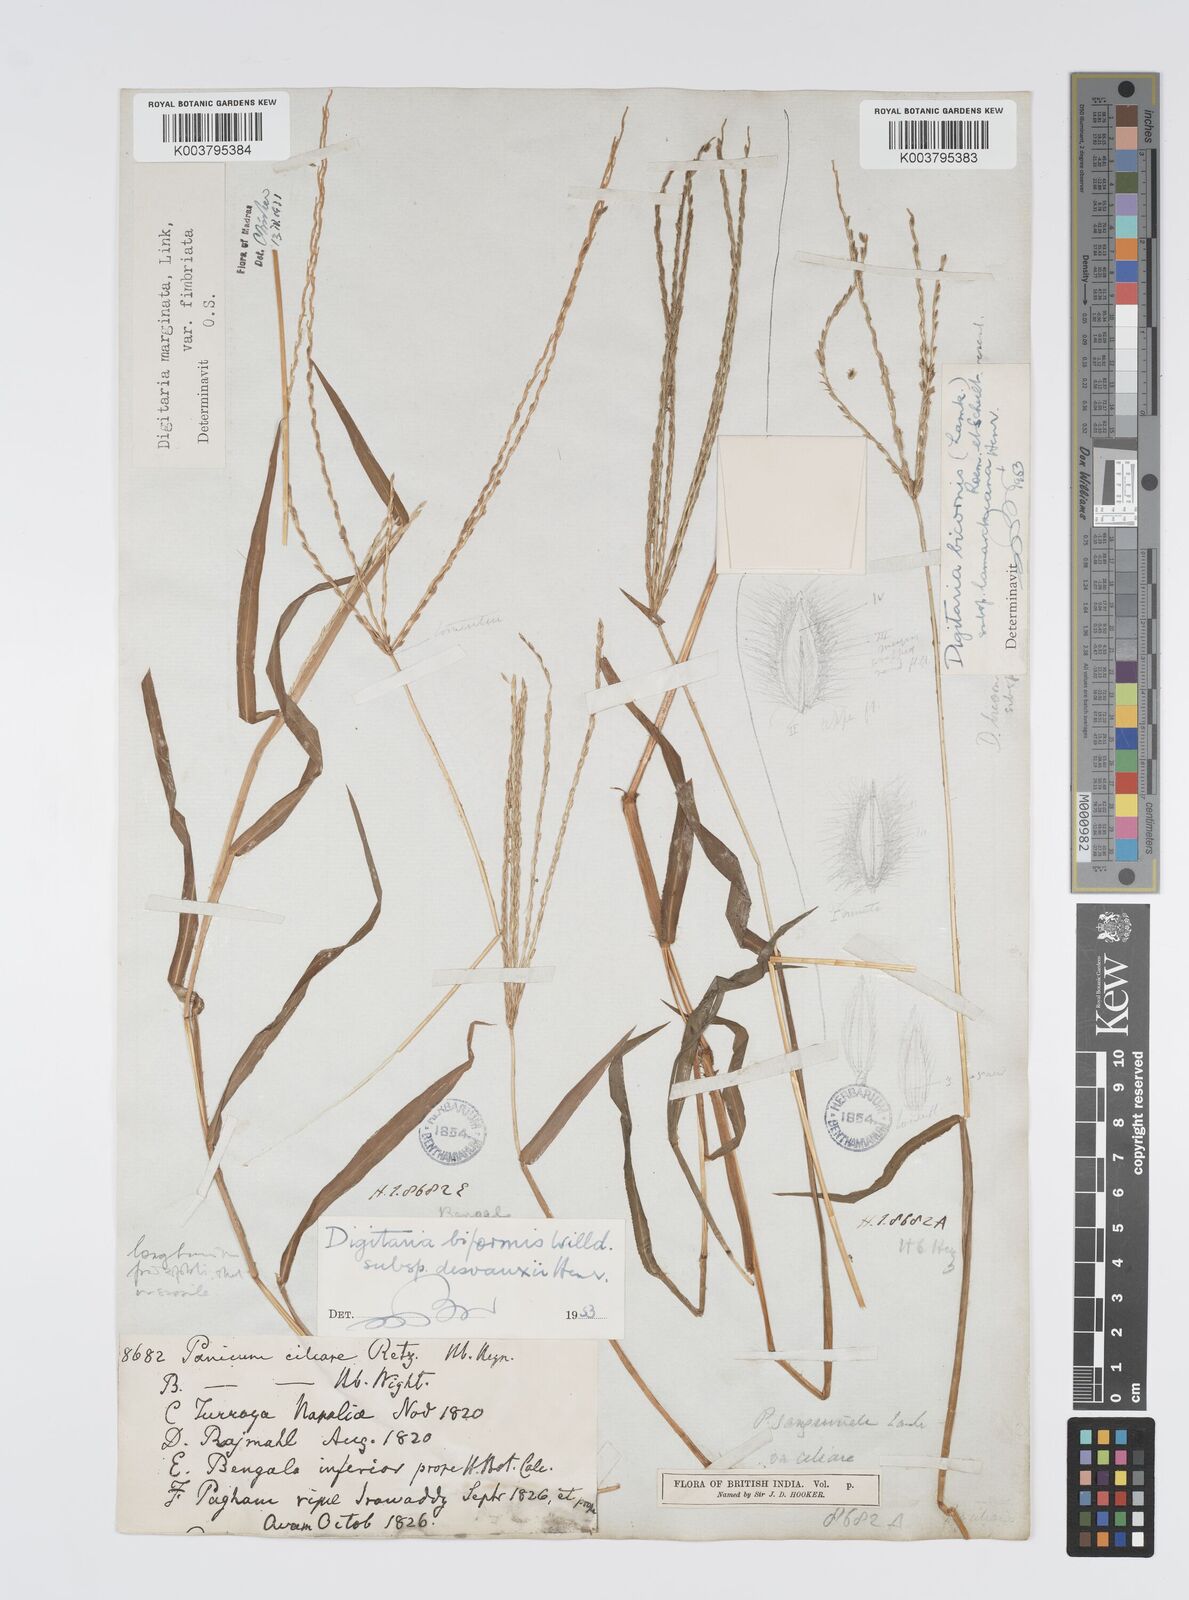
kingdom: Plantae
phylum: Tracheophyta
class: Liliopsida
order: Poales
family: Poaceae
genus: Digitaria
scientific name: Digitaria ciliaris
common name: Tropical finger-grass
